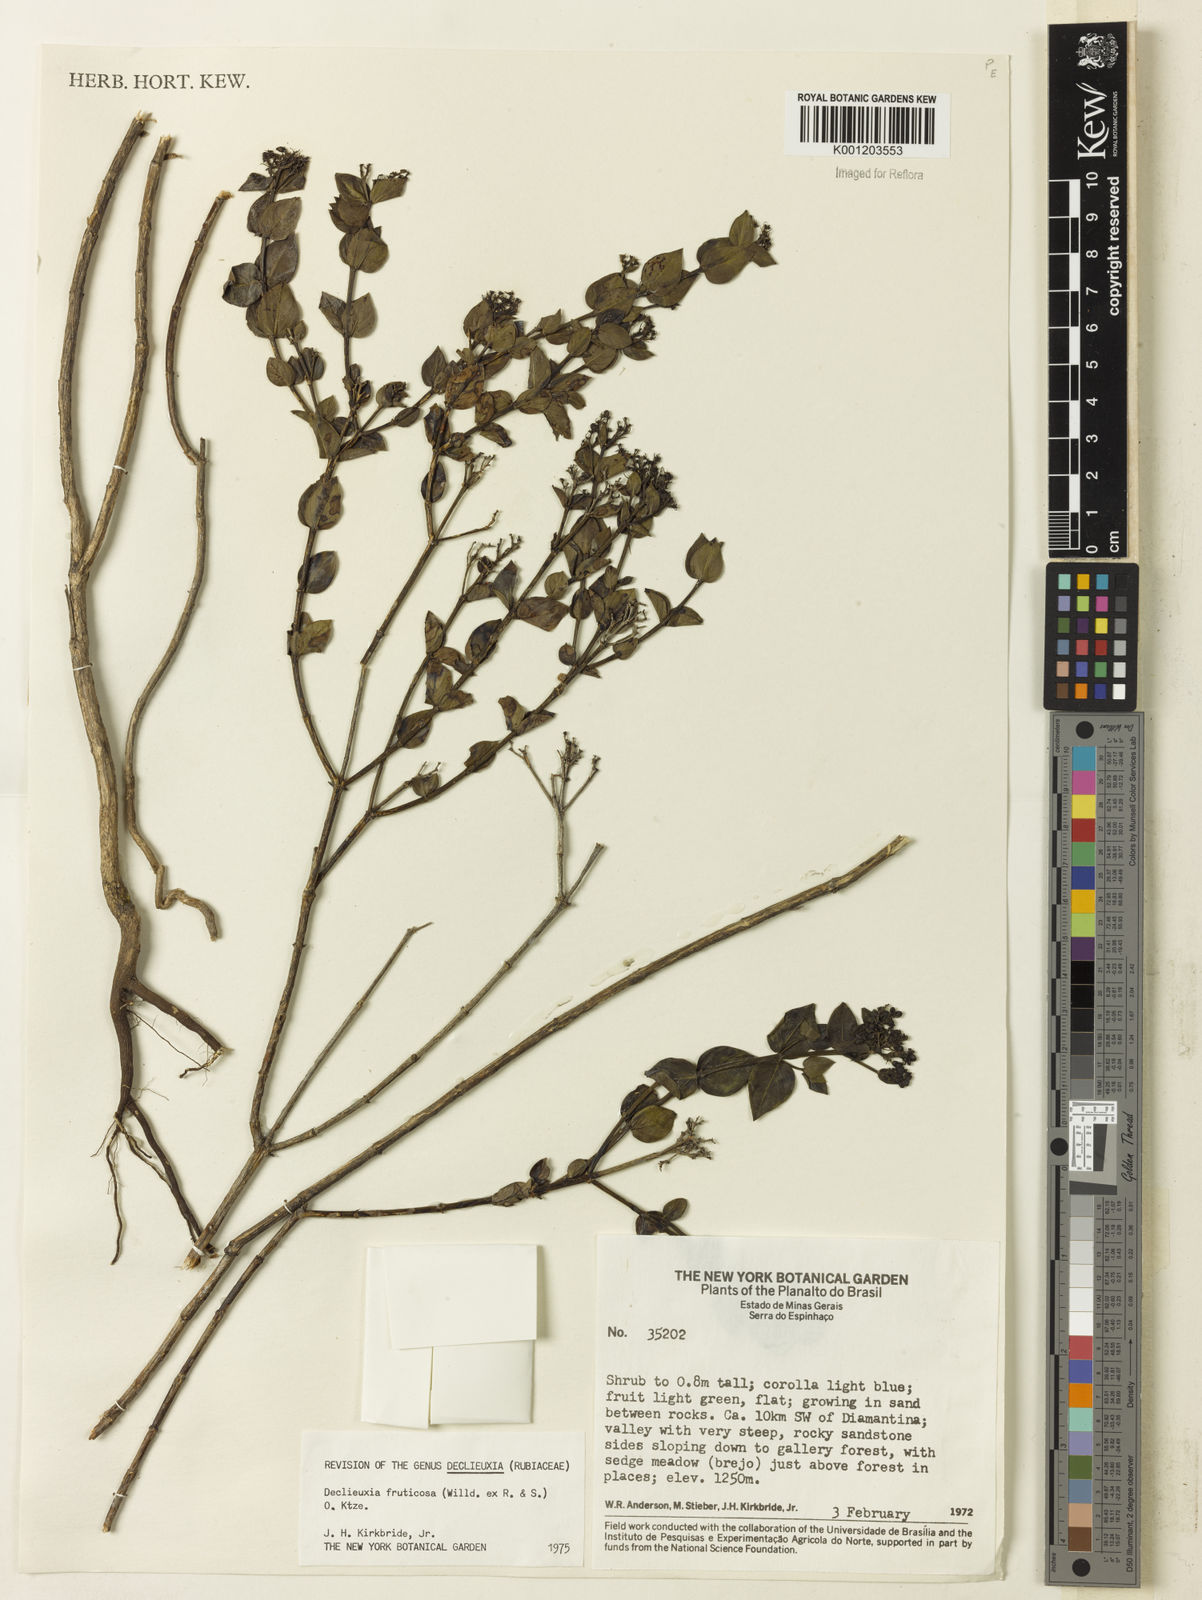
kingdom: Plantae
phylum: Tracheophyta
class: Magnoliopsida
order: Gentianales
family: Rubiaceae
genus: Declieuxia
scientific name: Declieuxia fruticosa
